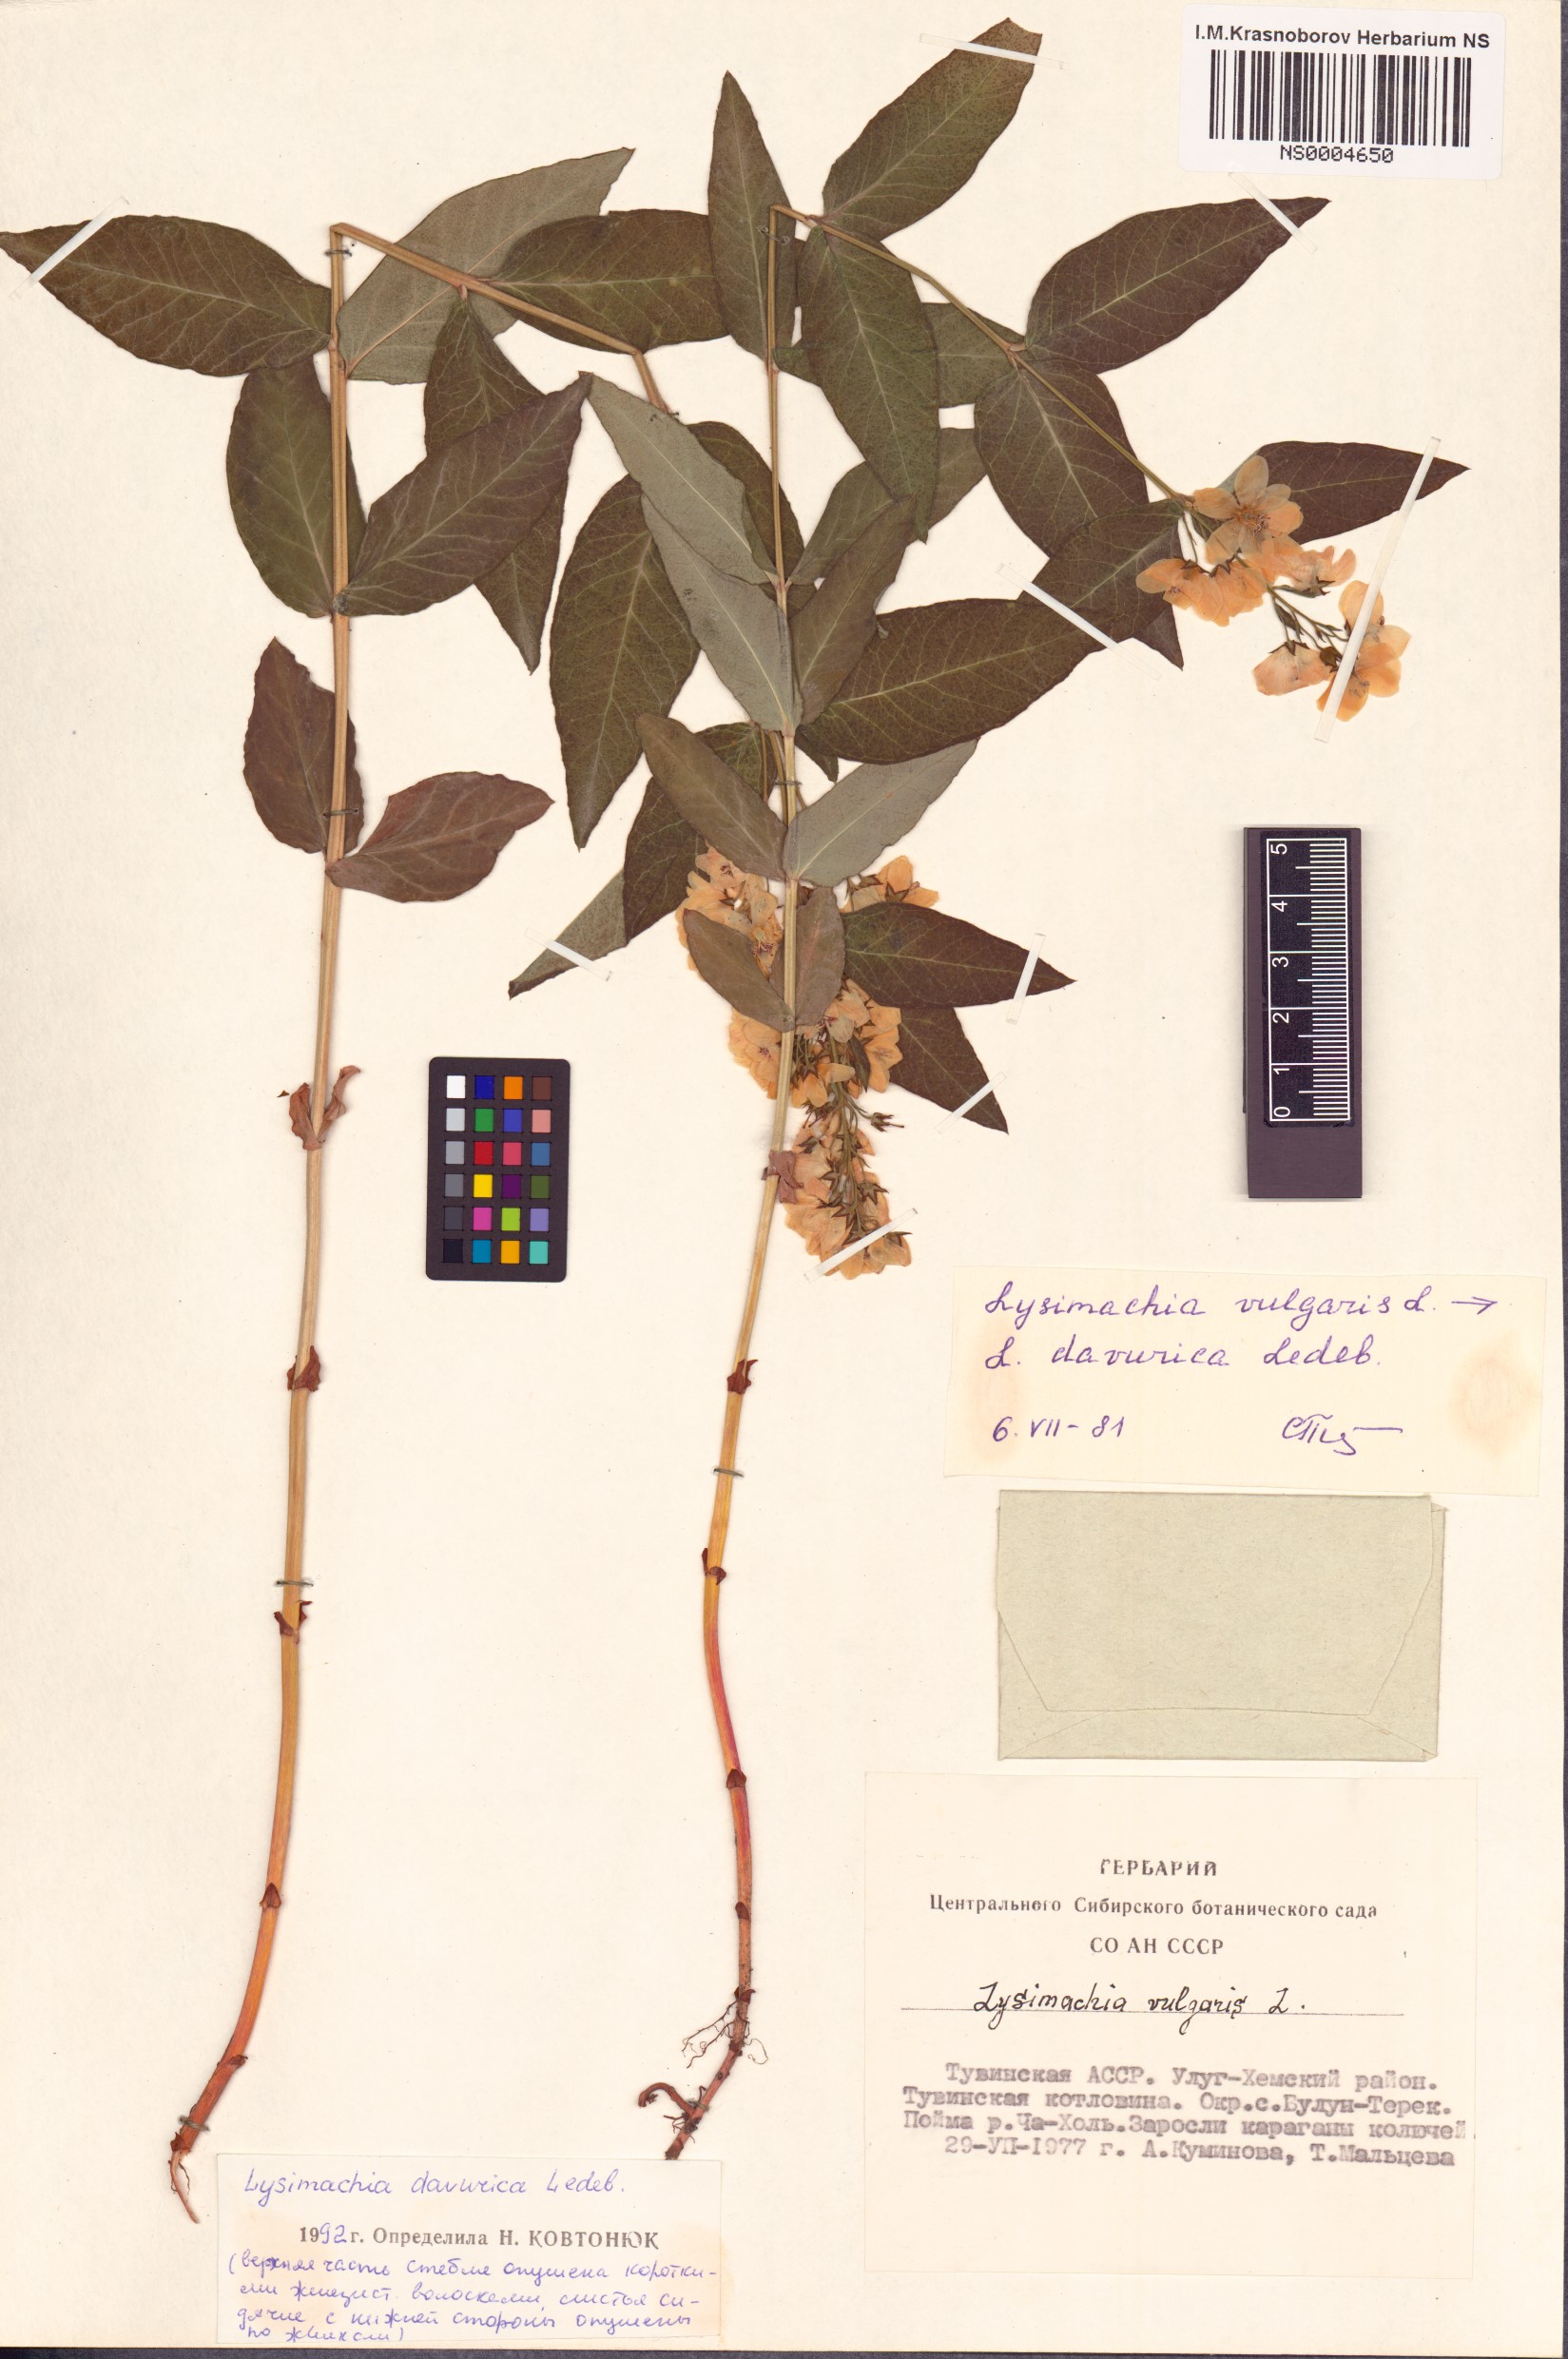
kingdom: Plantae
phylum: Tracheophyta
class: Magnoliopsida
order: Ericales
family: Primulaceae
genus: Lysimachia
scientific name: Lysimachia davurica
